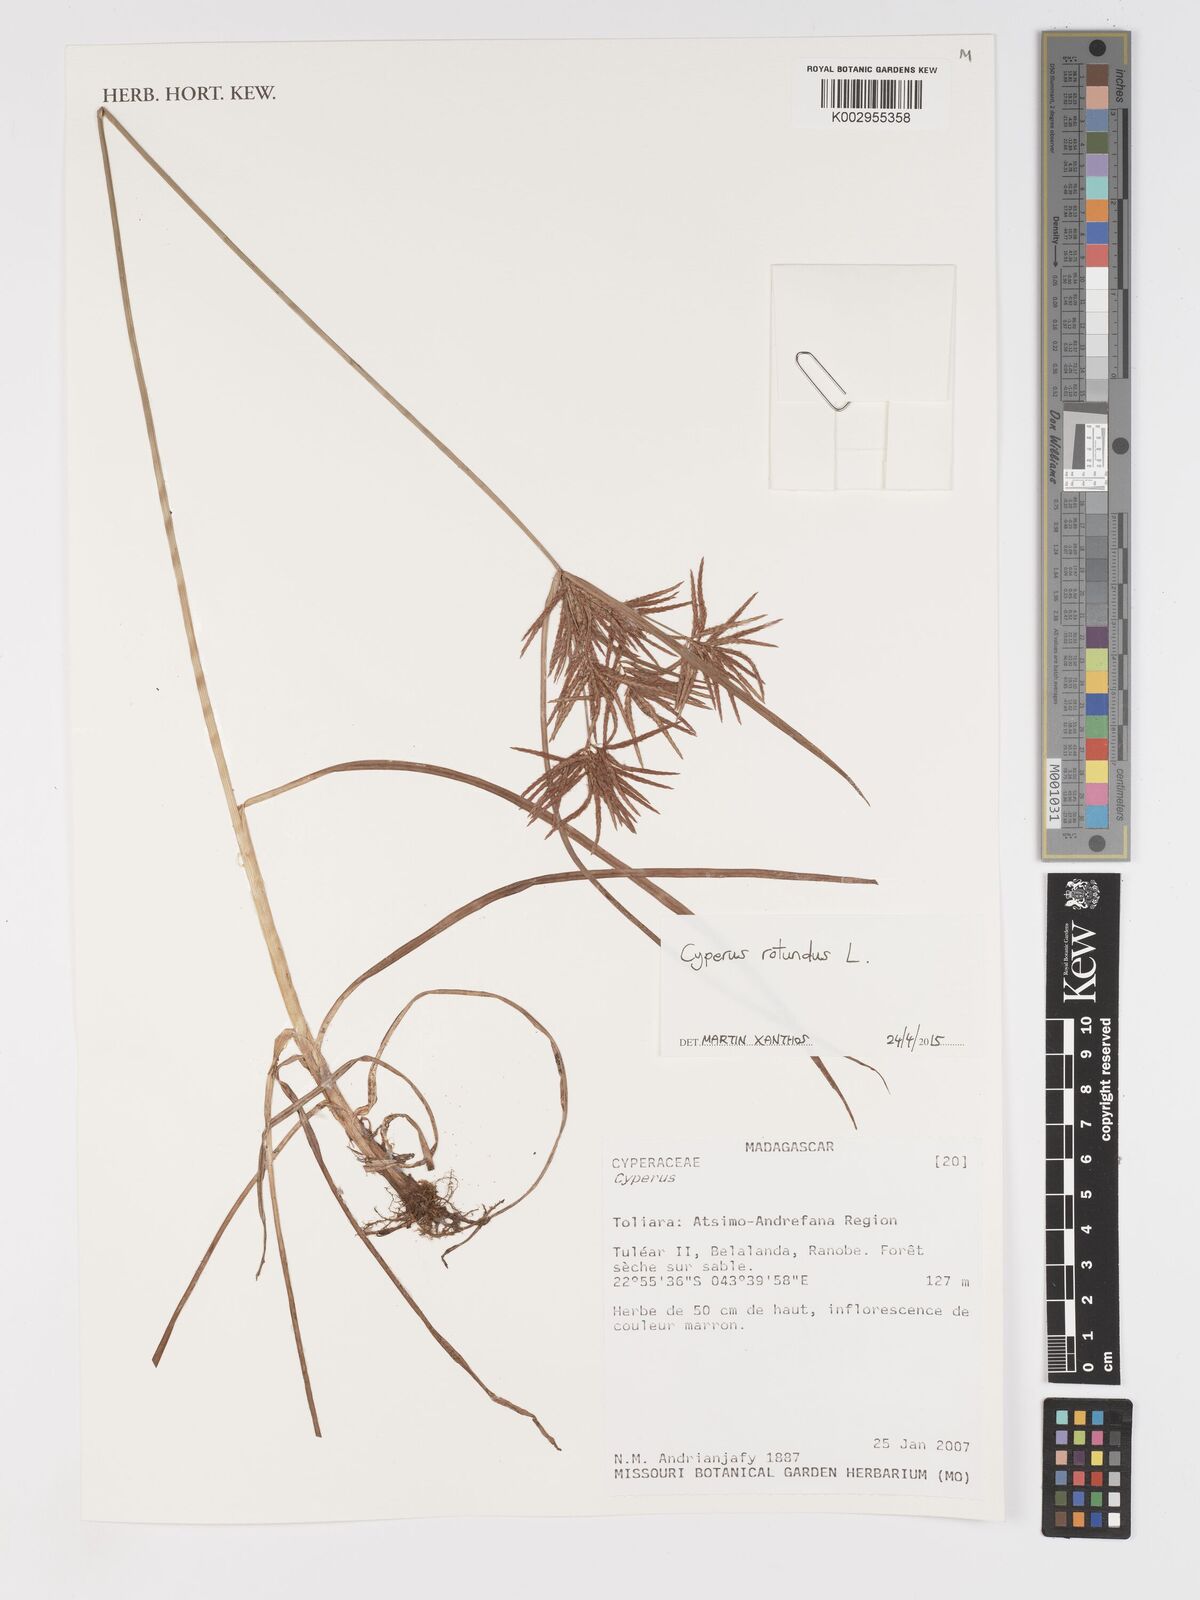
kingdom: Plantae
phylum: Tracheophyta
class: Liliopsida
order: Poales
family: Cyperaceae
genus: Cyperus
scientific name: Cyperus rotundus
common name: Nutgrass
